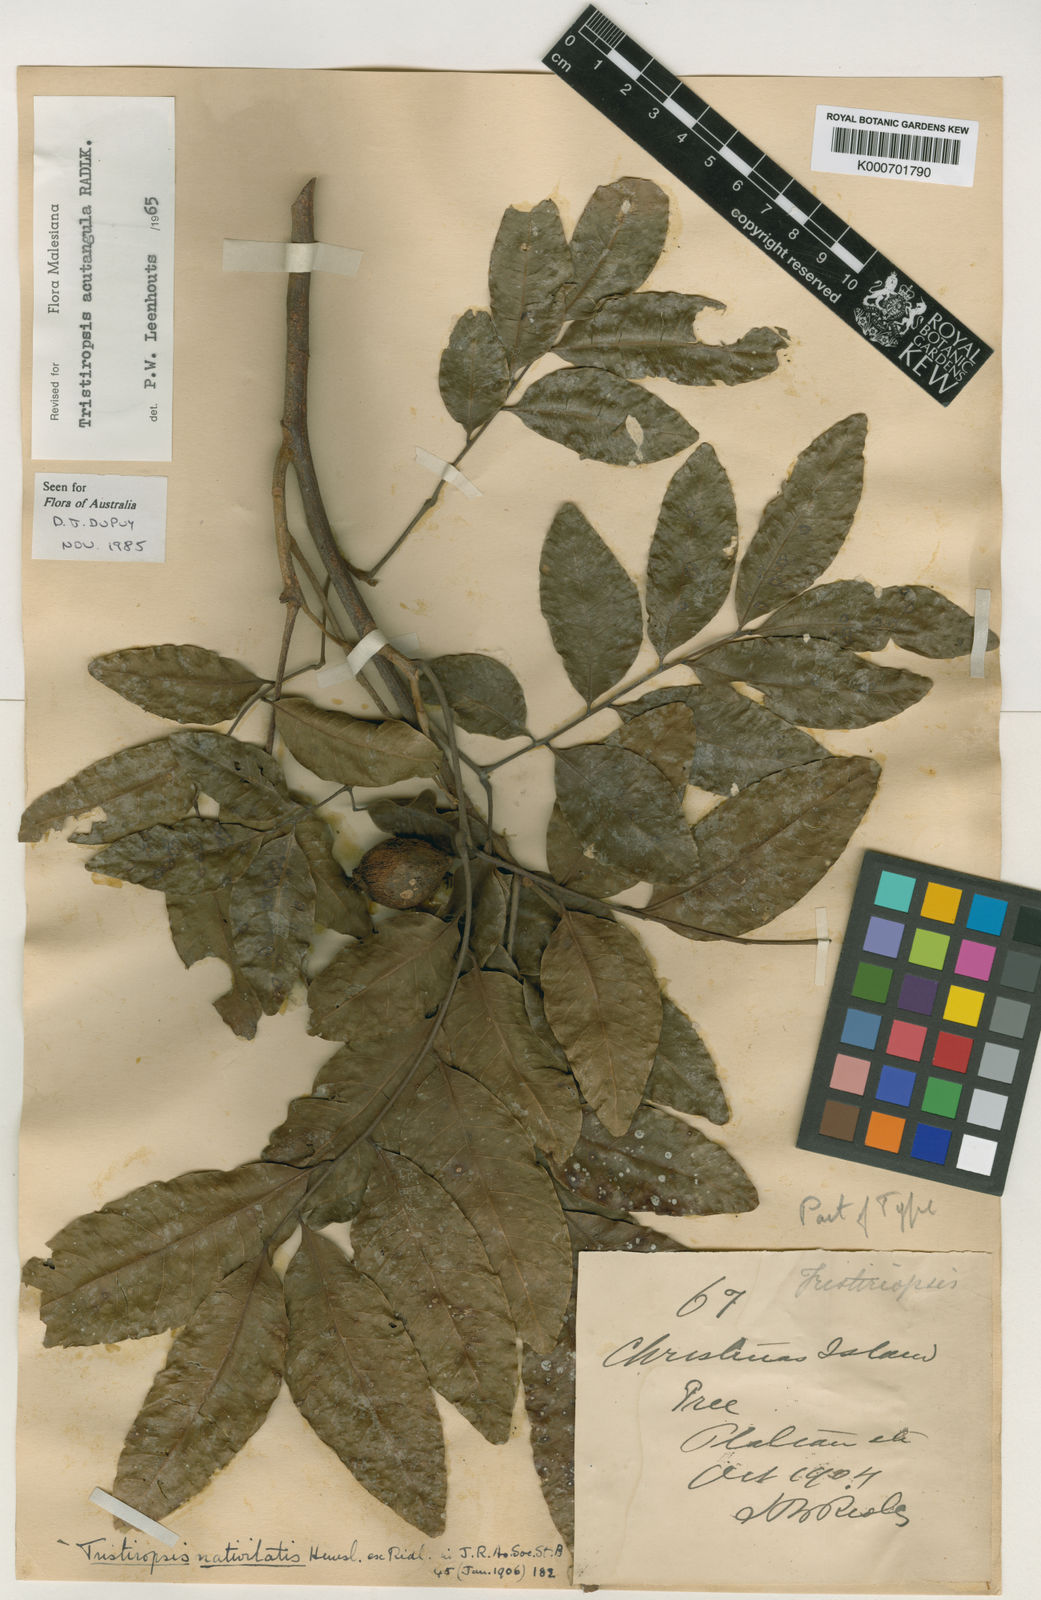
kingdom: Plantae
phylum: Tracheophyta
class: Magnoliopsida
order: Sapindales
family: Sapindaceae
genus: Tristiropsis
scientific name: Tristiropsis acutangula
